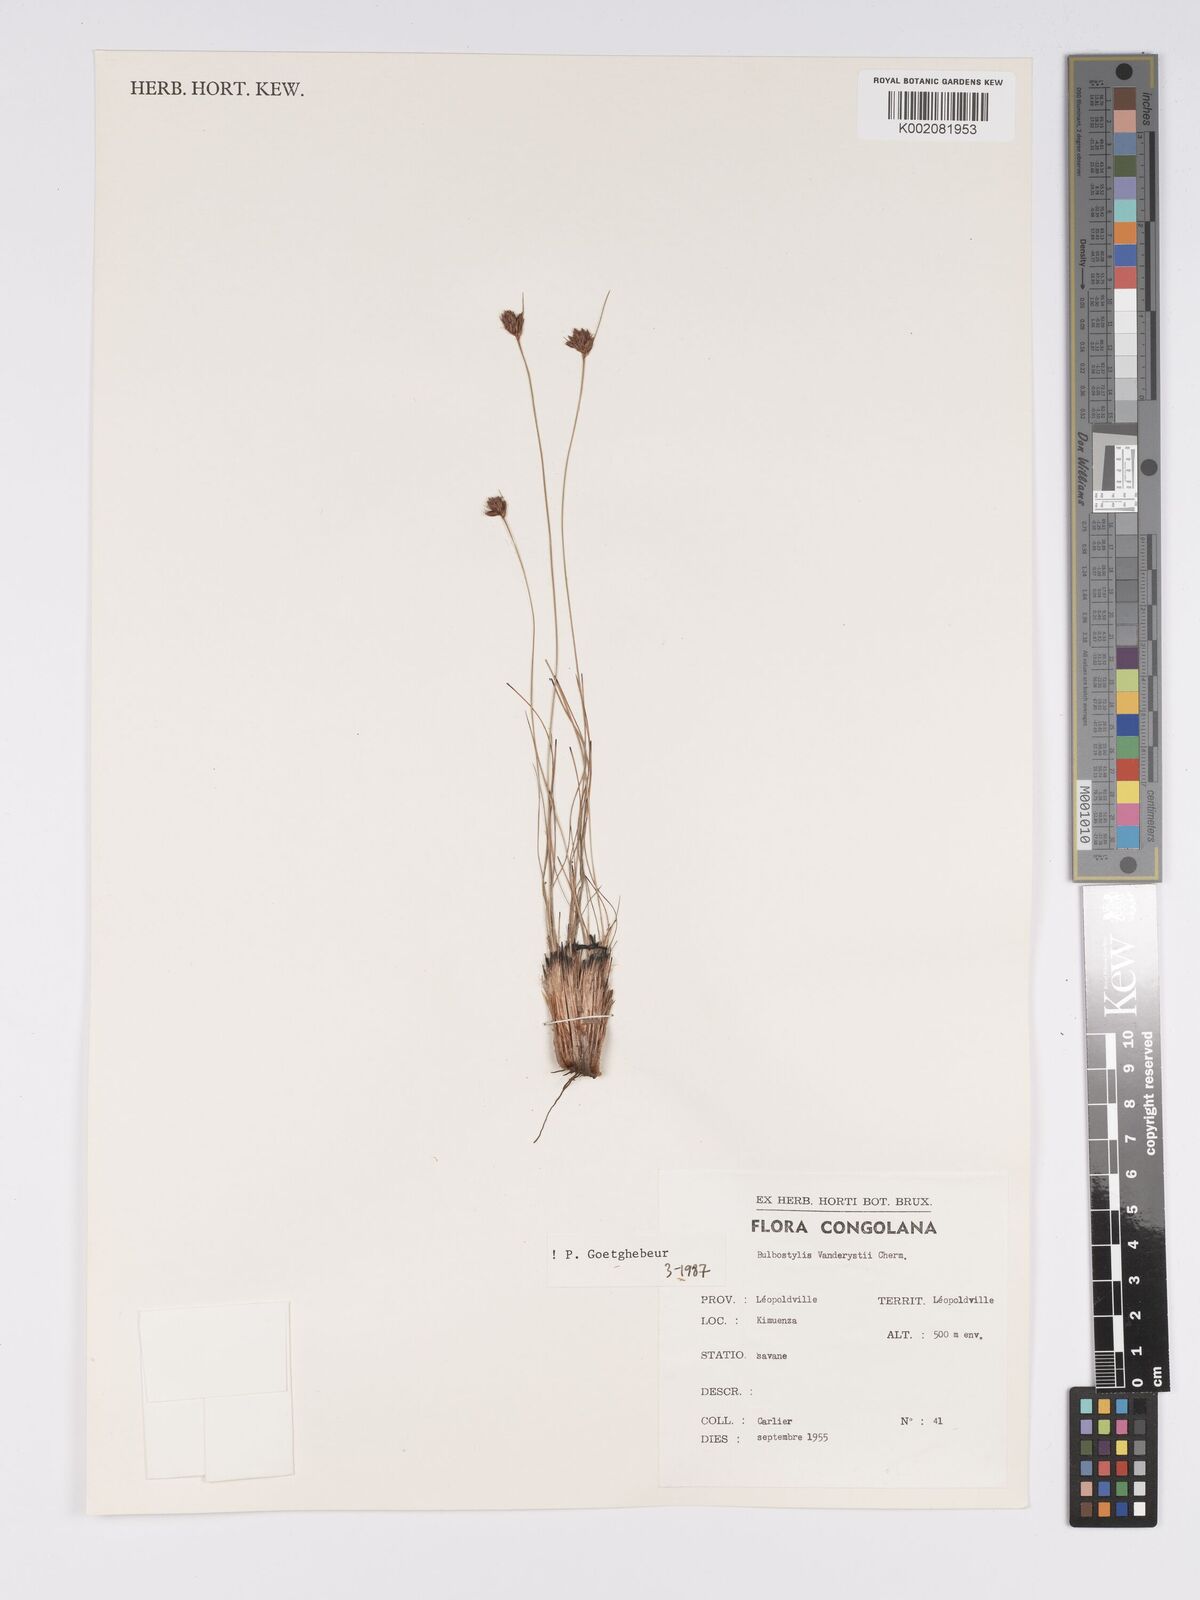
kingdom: Plantae
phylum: Tracheophyta
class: Liliopsida
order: Poales
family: Cyperaceae
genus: Bulbostylis
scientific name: Bulbostylis vanderystii
